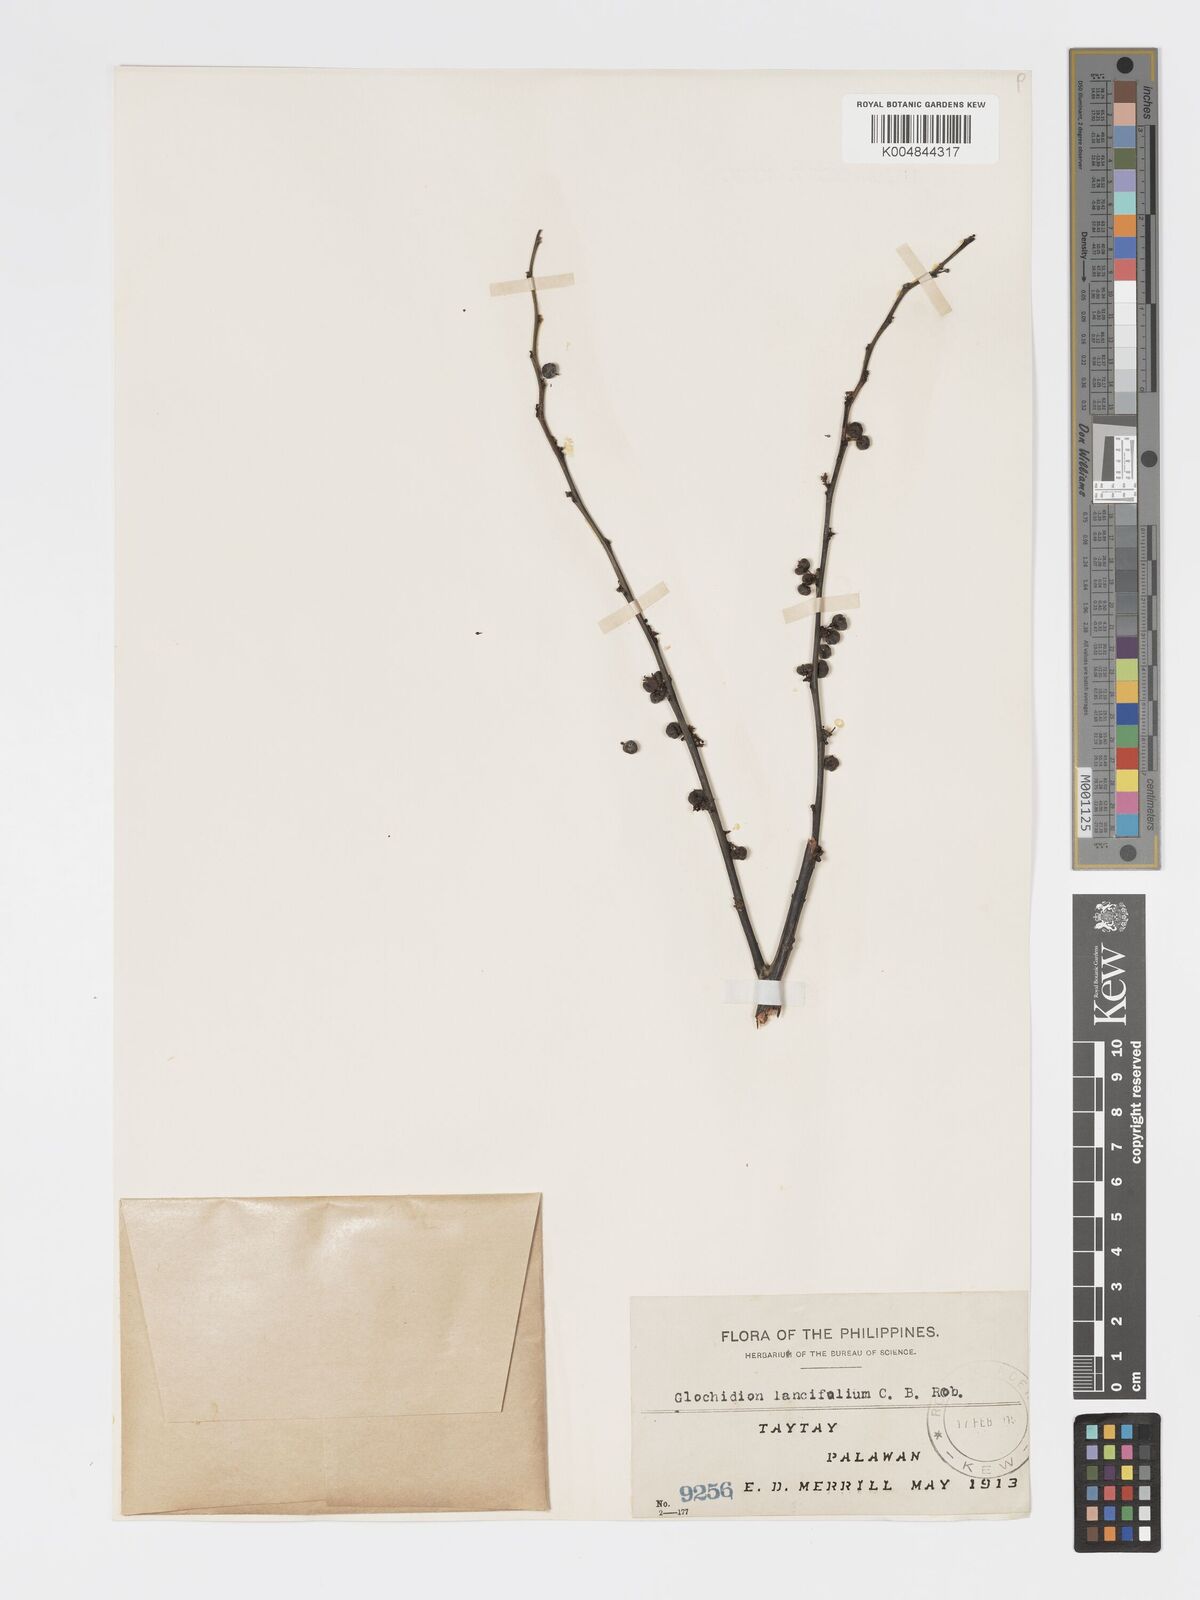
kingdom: Plantae
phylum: Tracheophyta
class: Magnoliopsida
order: Malpighiales
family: Phyllanthaceae
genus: Glochidion
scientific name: Glochidion urophylloides
